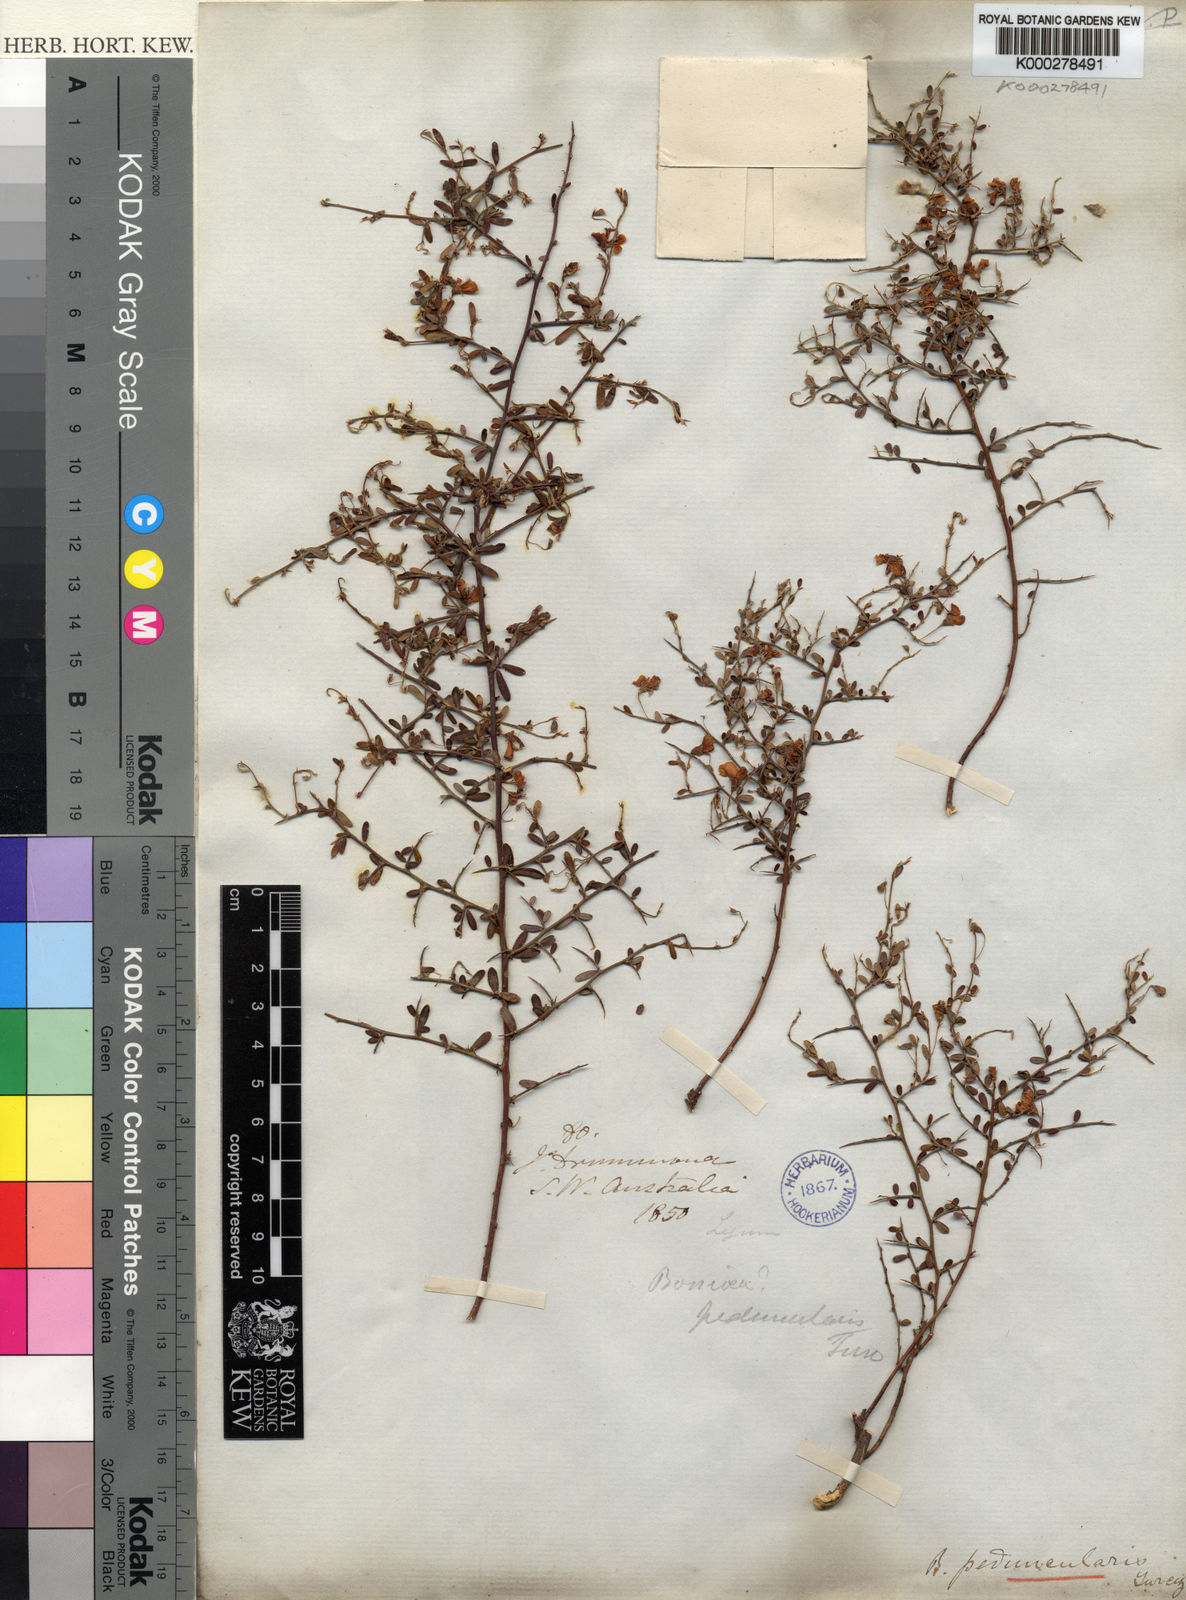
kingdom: Plantae
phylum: Tracheophyta
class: Magnoliopsida
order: Fabales
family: Fabaceae
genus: Bossiaea
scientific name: Bossiaea peduncularis
